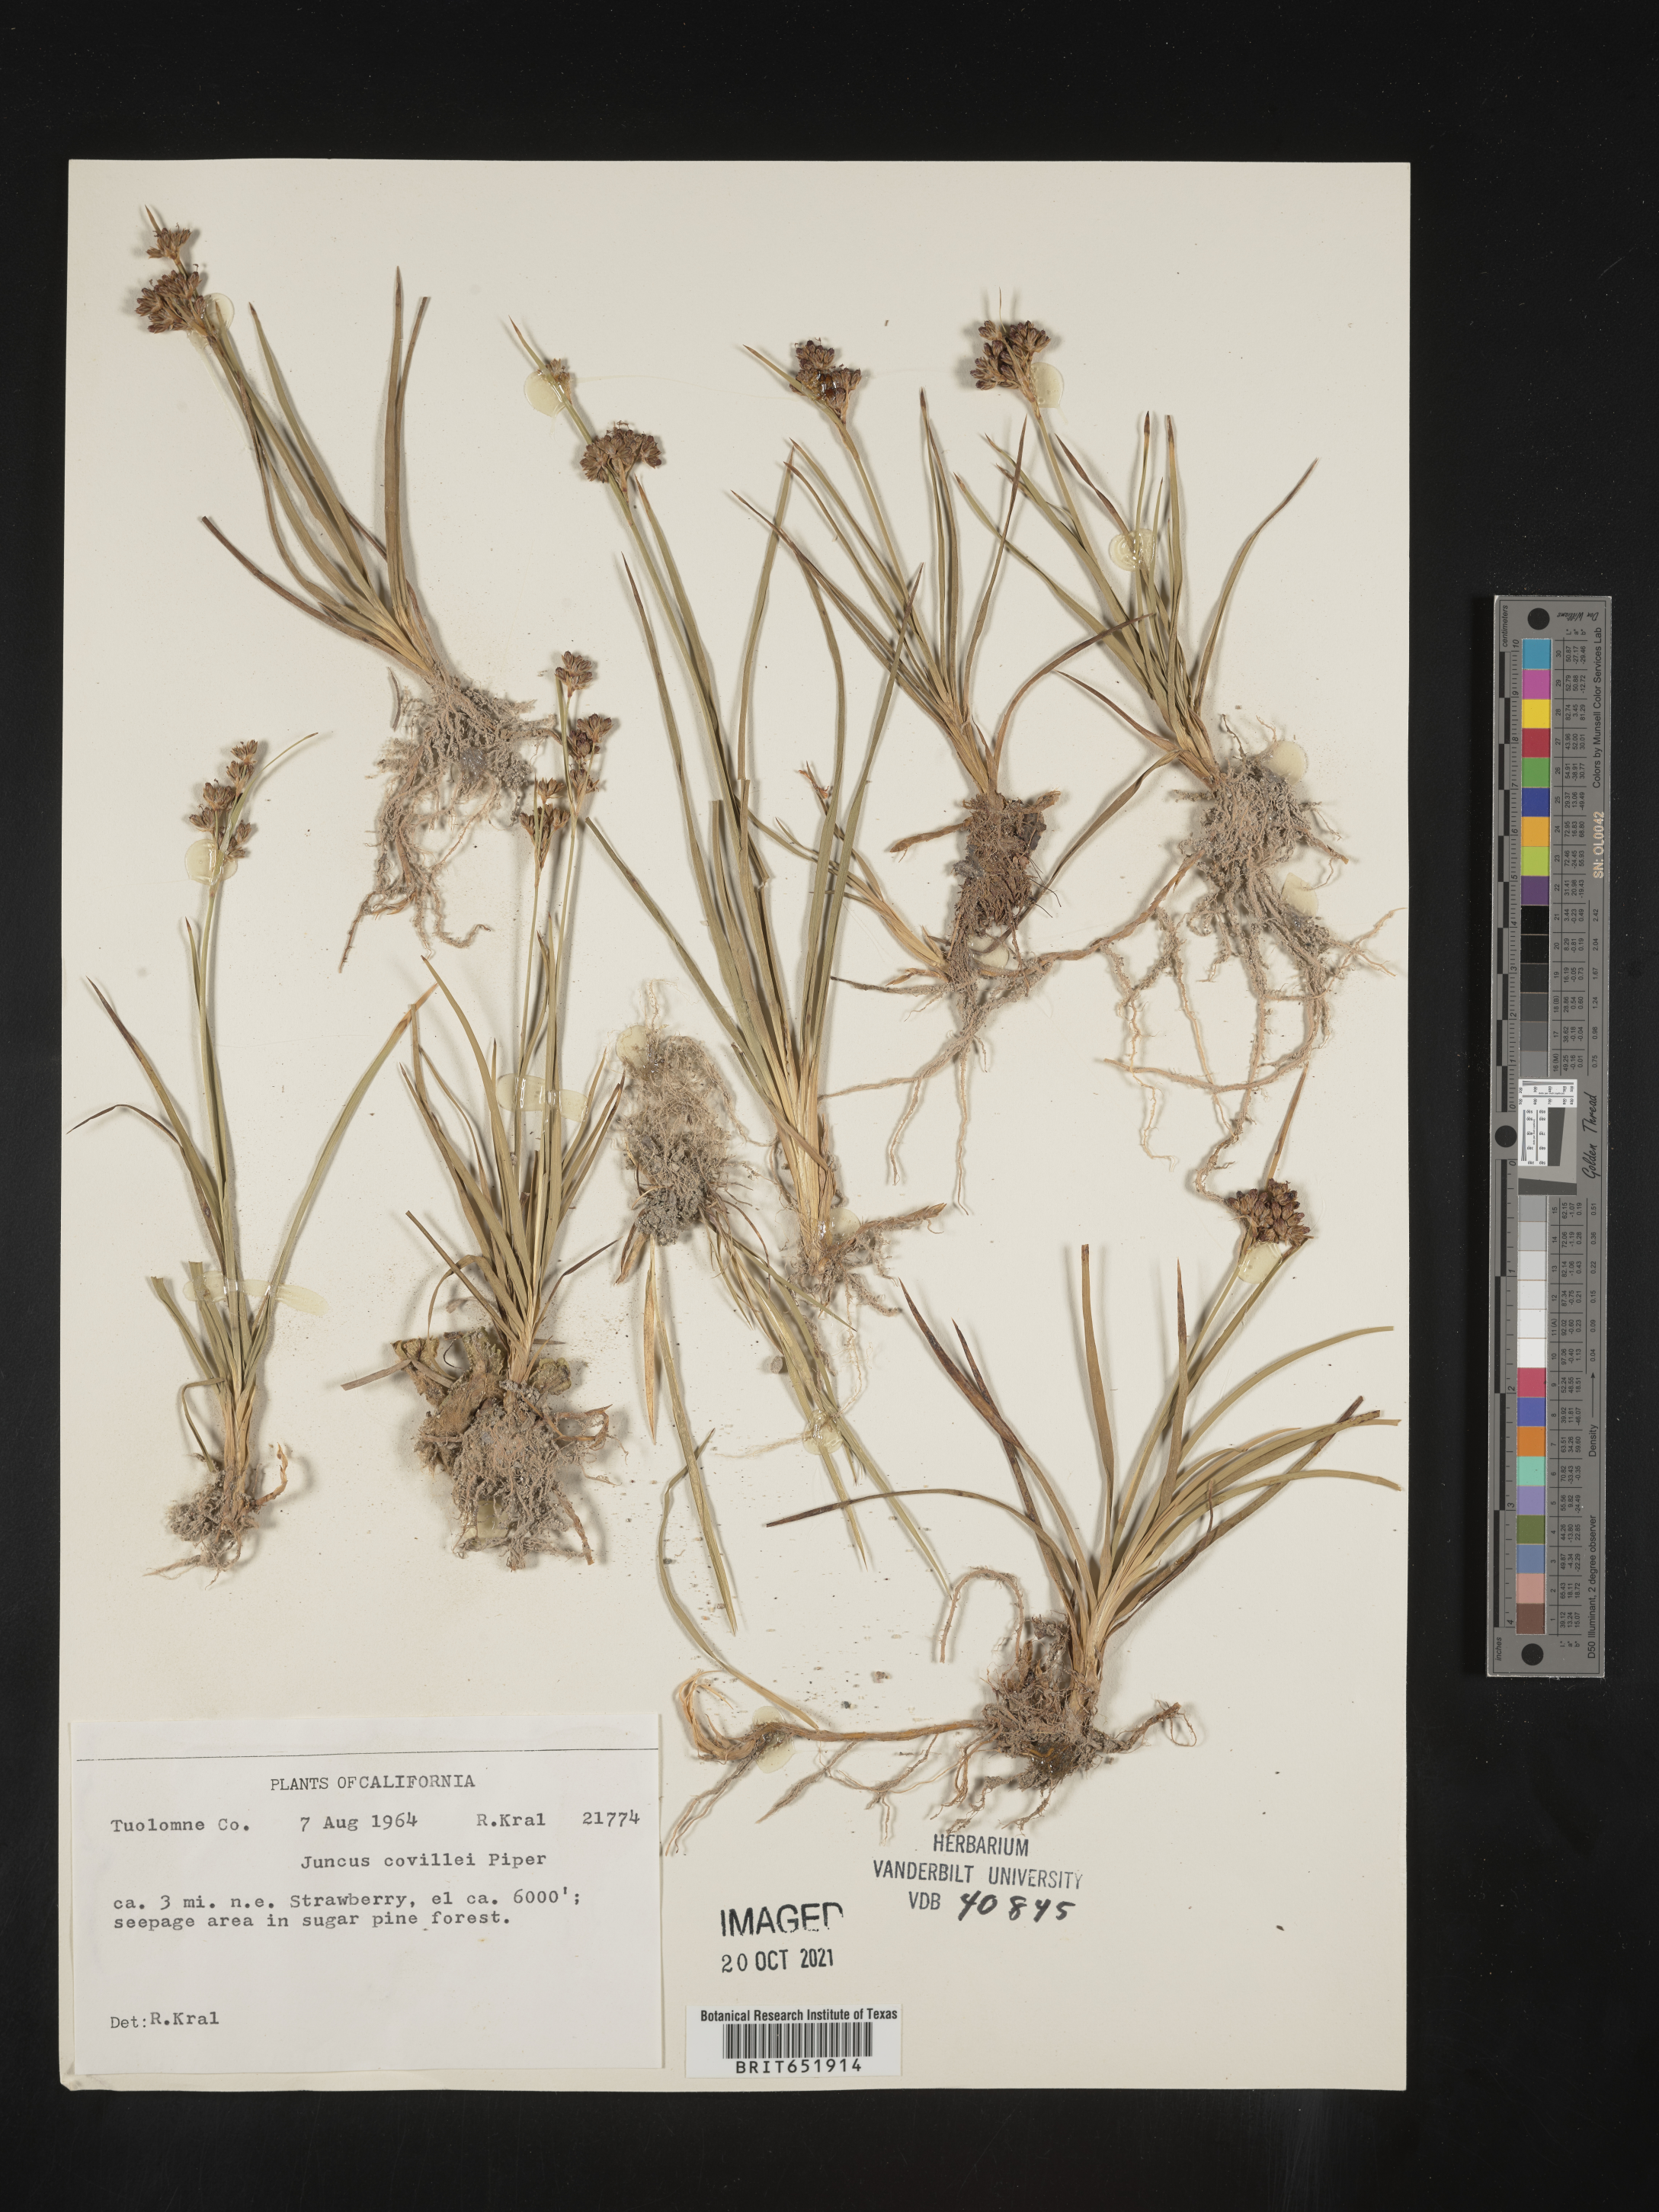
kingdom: Plantae
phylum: Tracheophyta
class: Liliopsida
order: Poales
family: Juncaceae
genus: Juncus
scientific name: Juncus covillei
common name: Coville's rush
